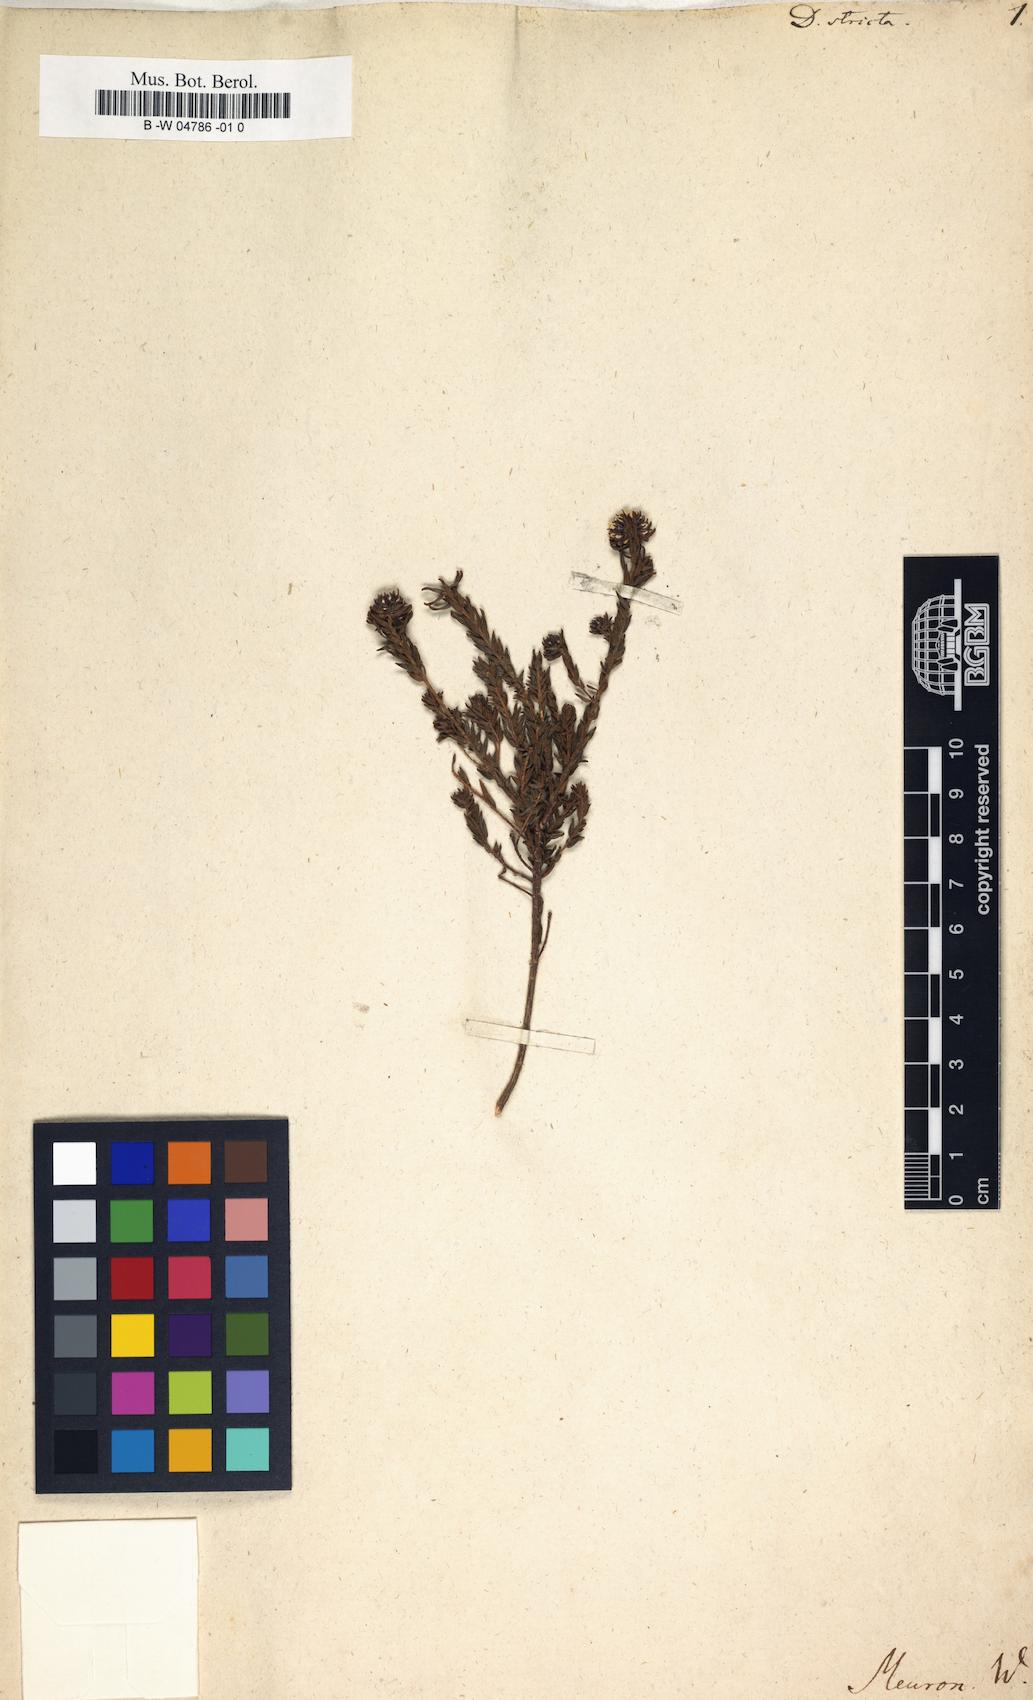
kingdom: Plantae
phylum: Tracheophyta
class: Magnoliopsida
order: Sapindales
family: Rutaceae
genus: Agathosma
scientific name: Agathosma serpyllacea
